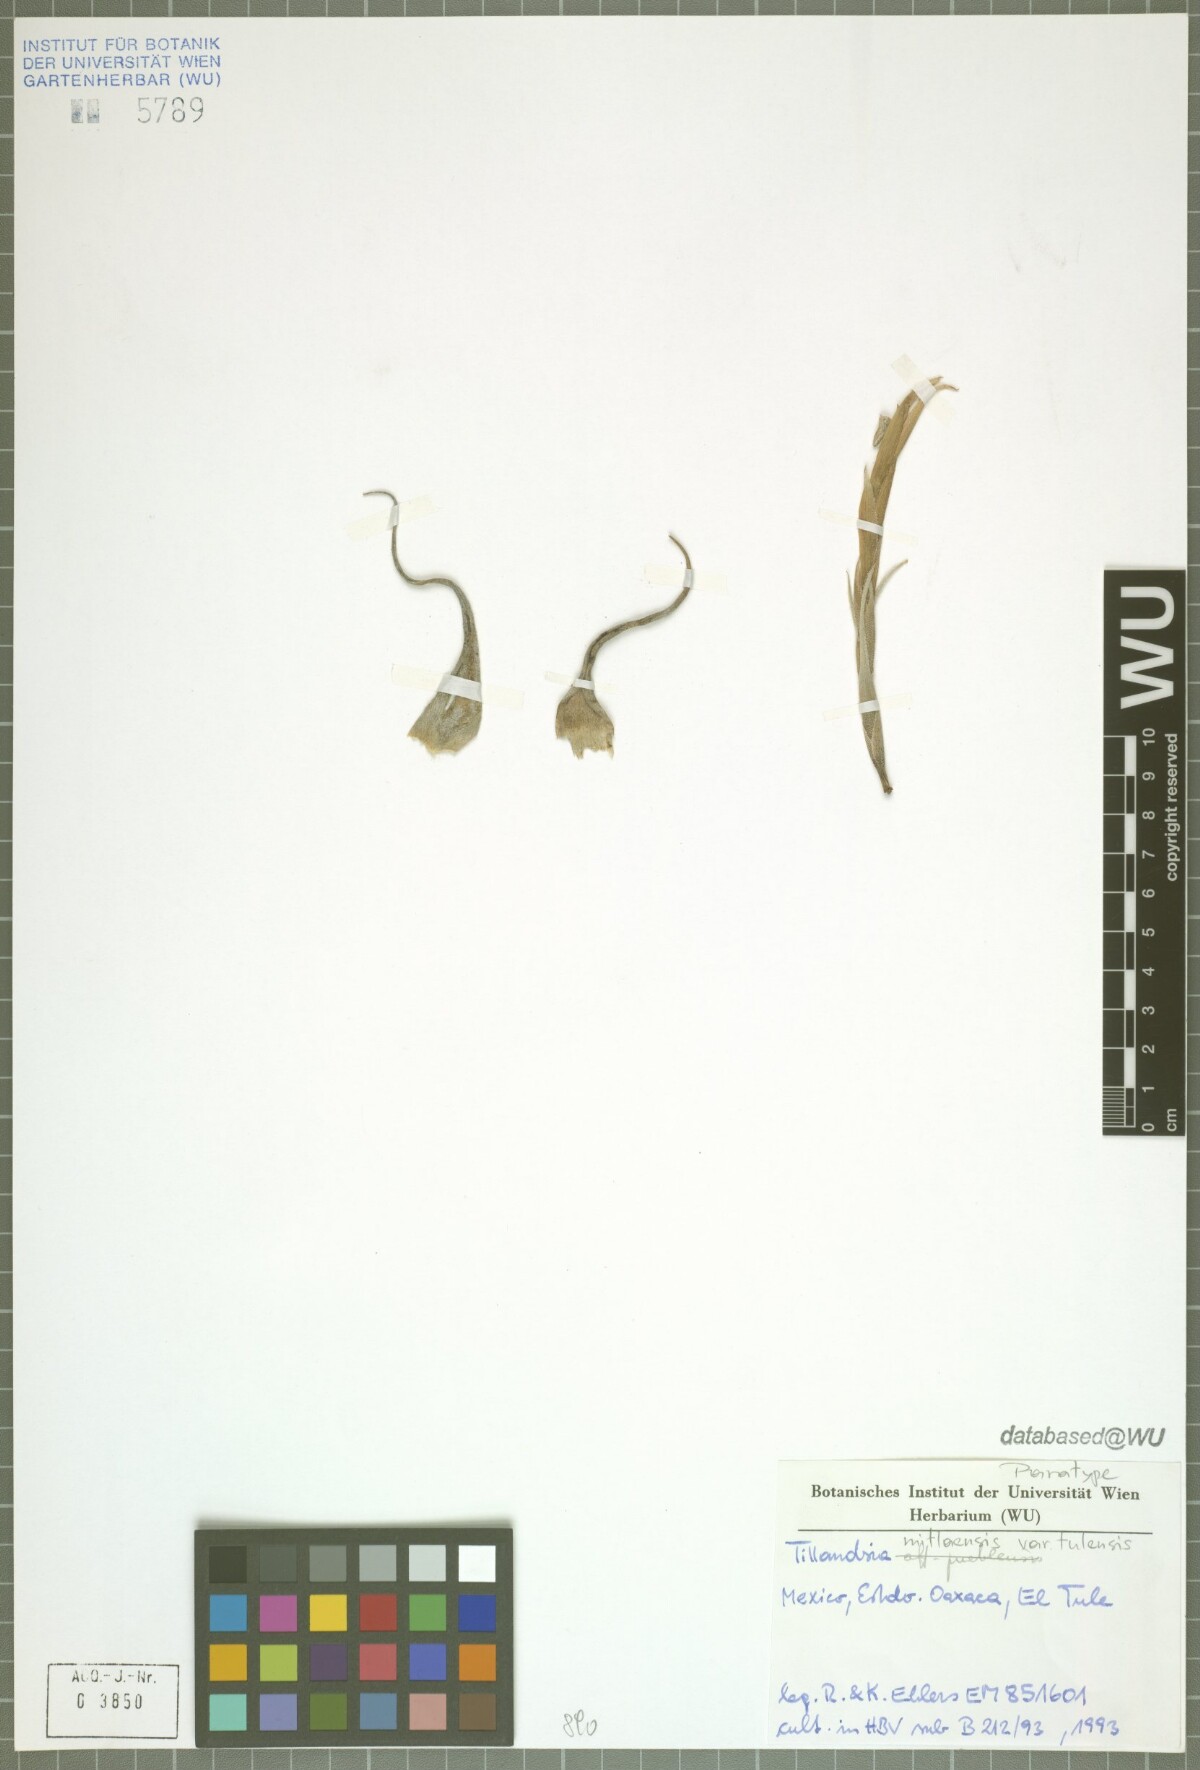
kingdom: Plantae
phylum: Tracheophyta
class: Liliopsida
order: Poales
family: Bromeliaceae
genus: Tillandsia
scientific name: Tillandsia mitlaensis
